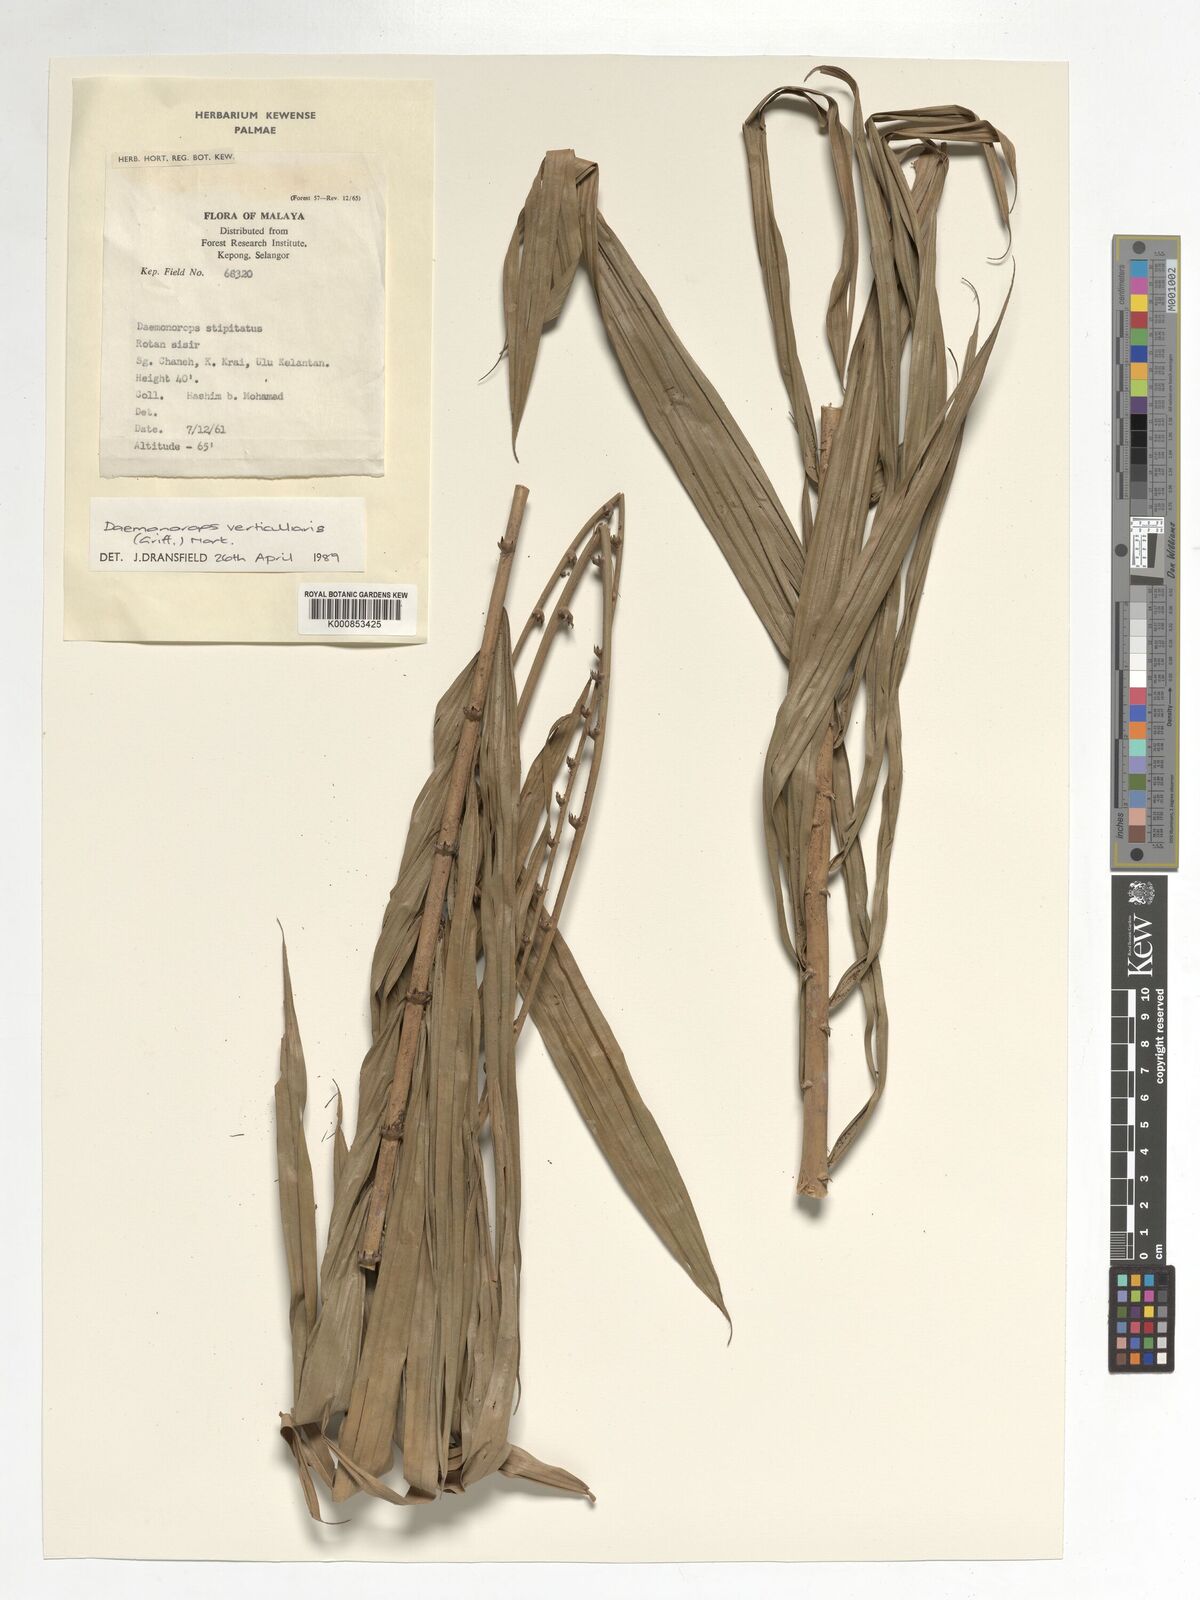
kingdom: Plantae
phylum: Tracheophyta
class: Liliopsida
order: Arecales
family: Arecaceae
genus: Calamus
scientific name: Calamus verticillaris
